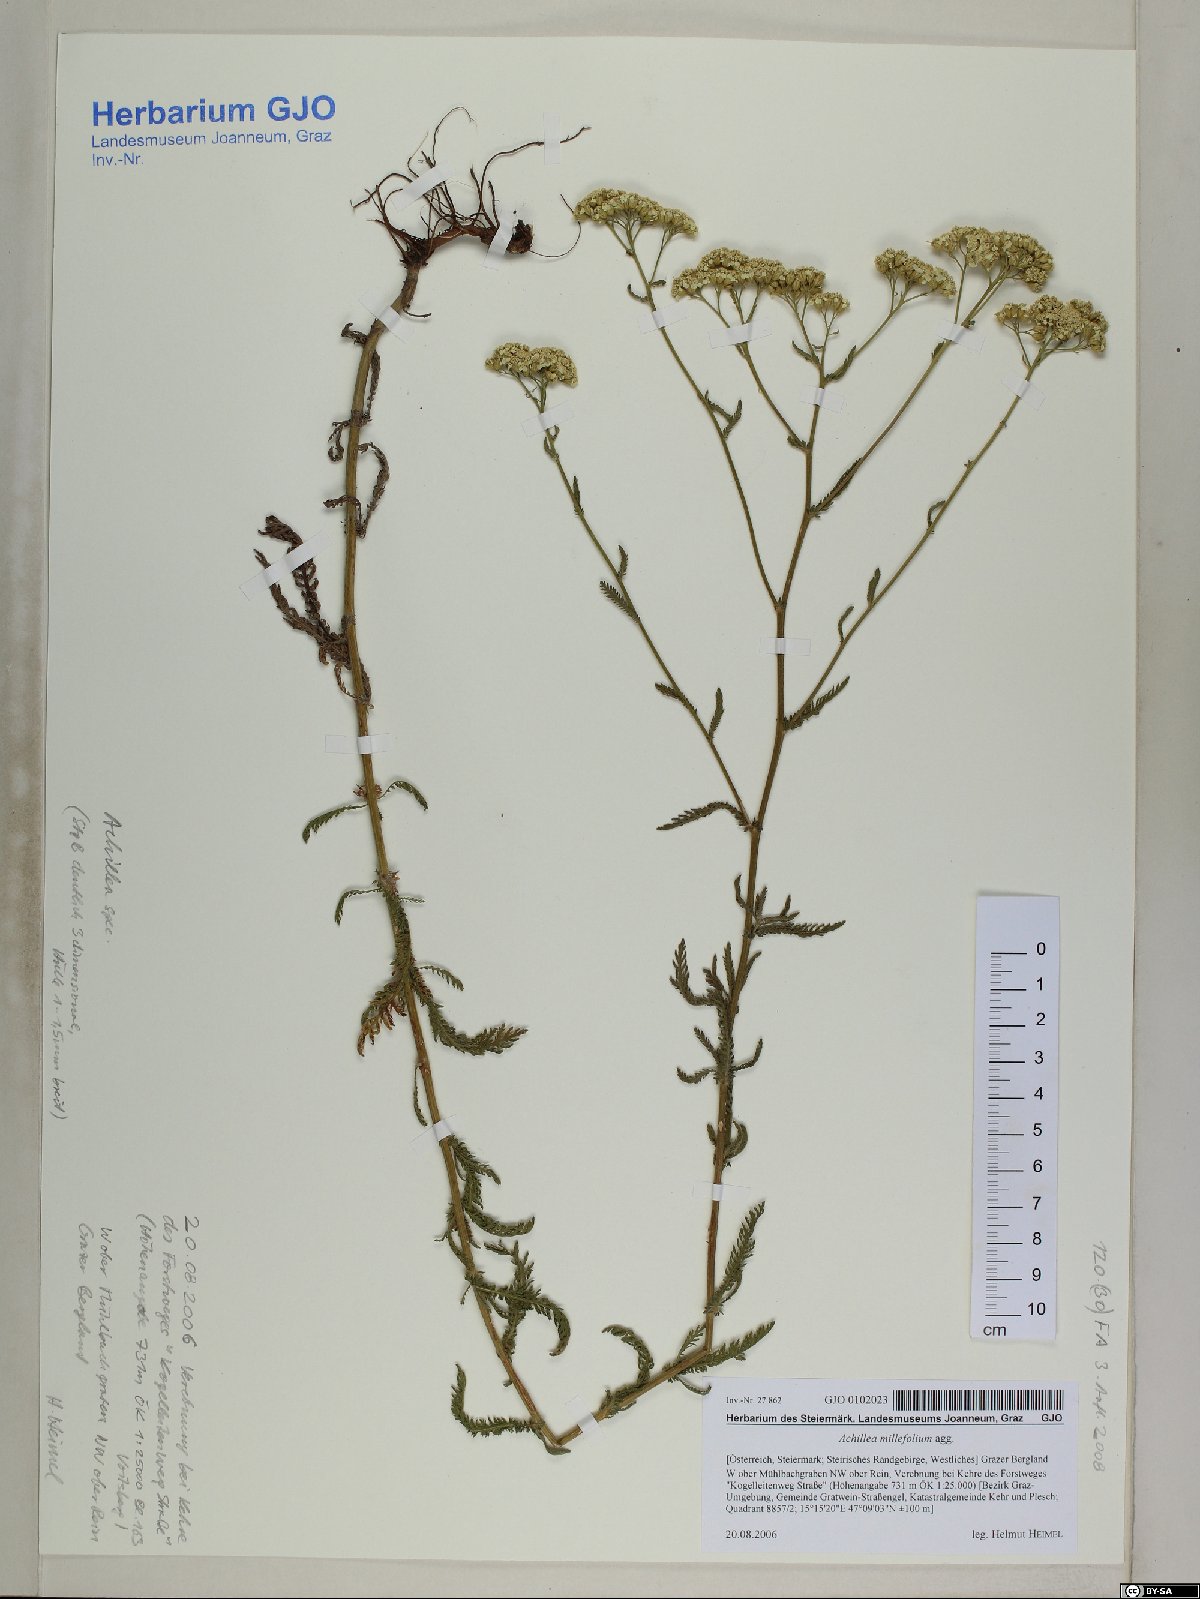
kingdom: Plantae
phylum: Tracheophyta
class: Magnoliopsida
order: Asterales
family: Asteraceae
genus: Achillea
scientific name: Achillea millefolium
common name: Yarrow
